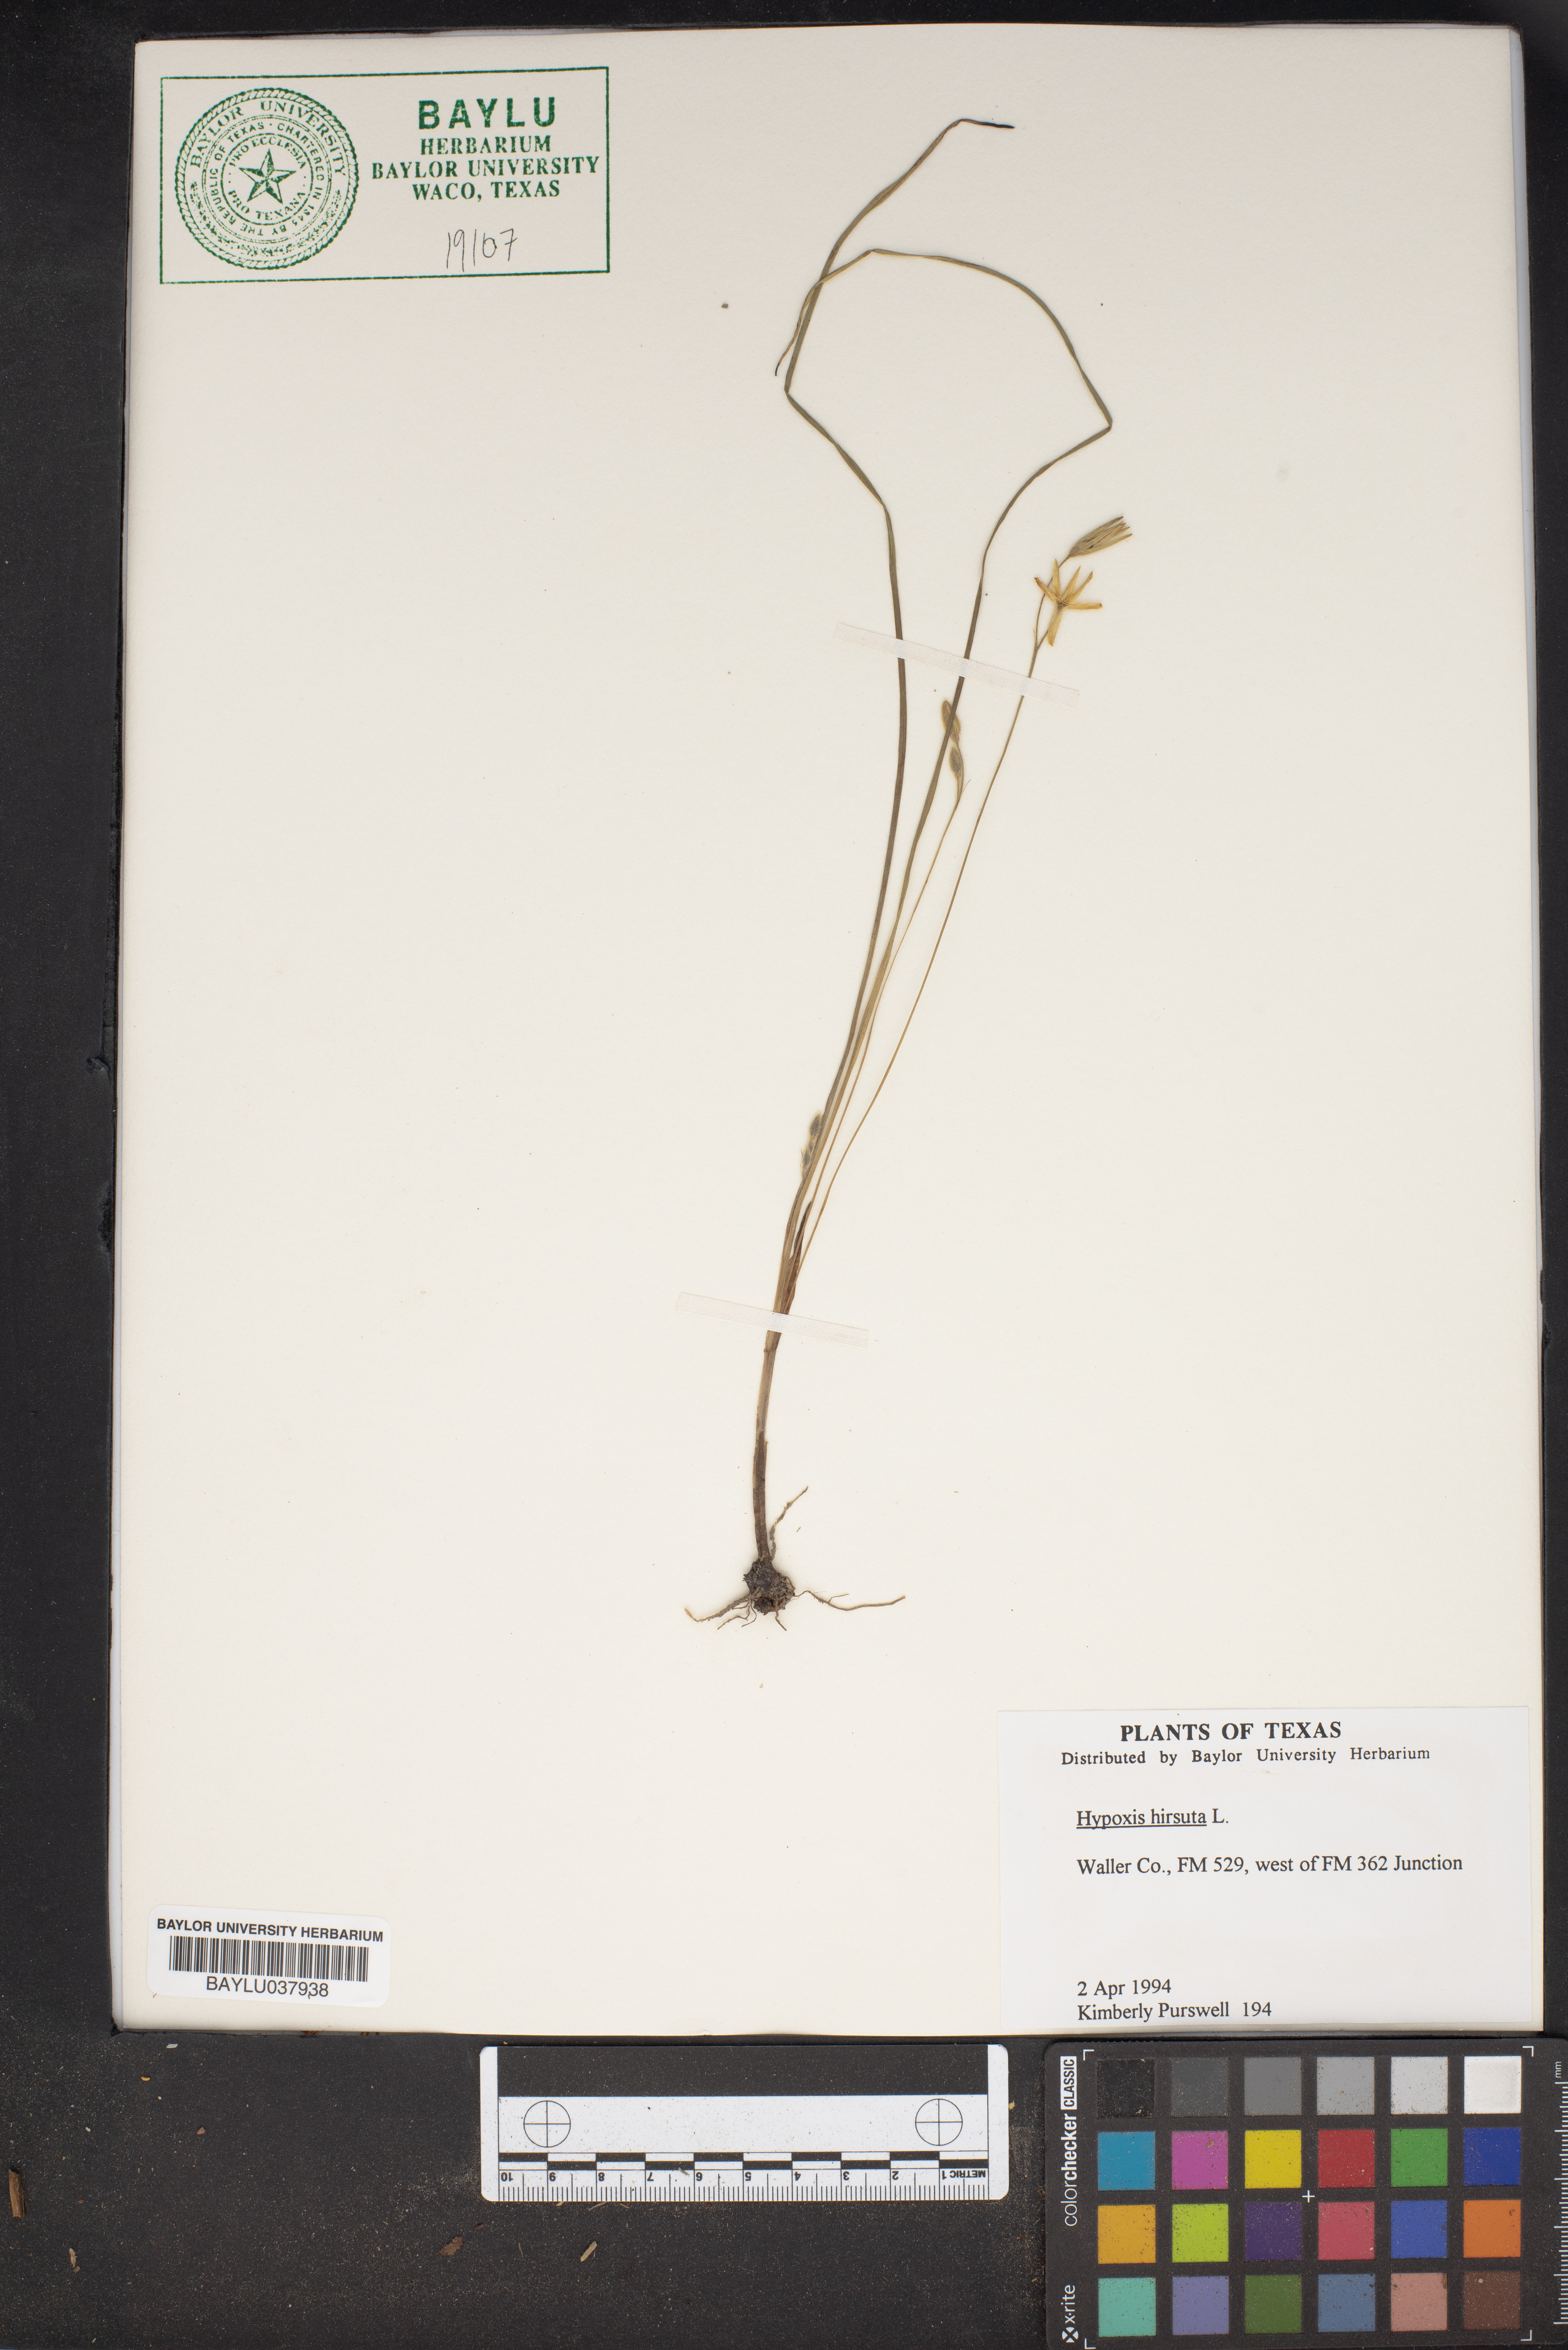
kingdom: Plantae
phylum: Tracheophyta
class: Liliopsida
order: Asparagales
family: Hypoxidaceae
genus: Hypoxis
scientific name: Hypoxis hirsuta
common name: Common goldstar
